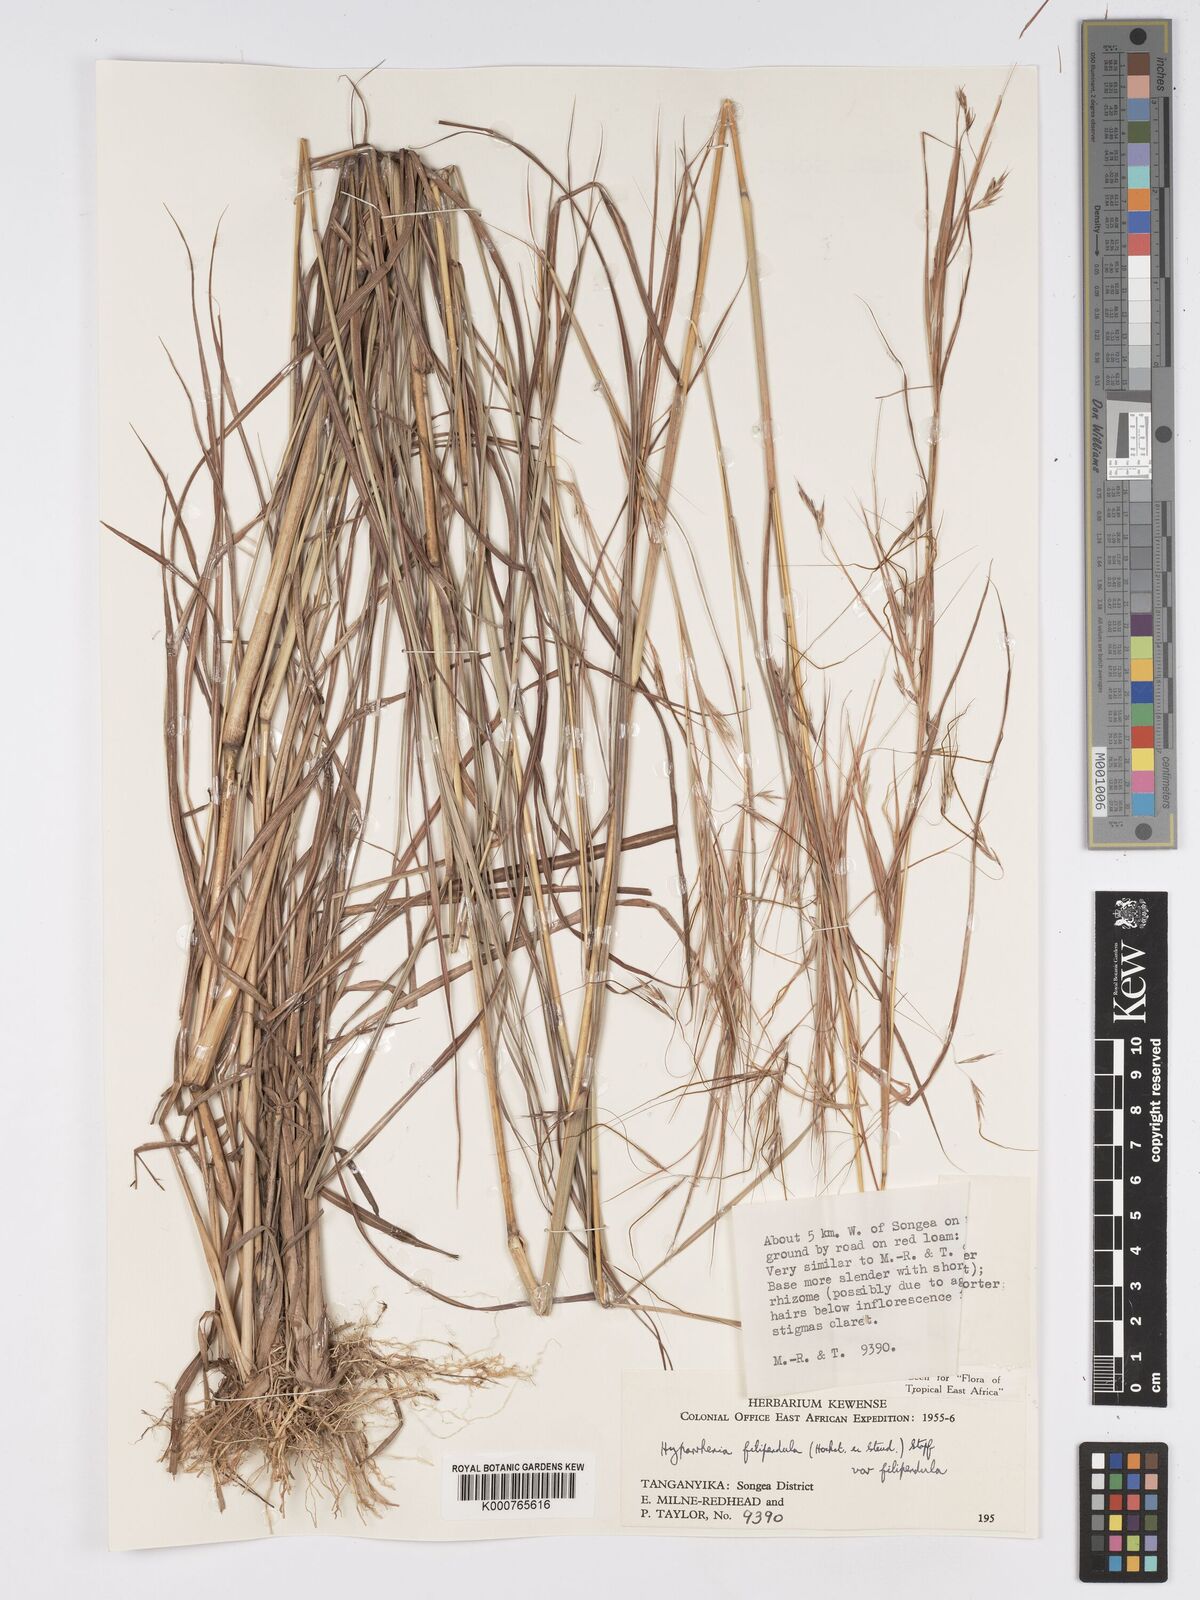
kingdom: Plantae
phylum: Tracheophyta
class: Liliopsida
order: Poales
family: Poaceae
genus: Hyparrhenia
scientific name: Hyparrhenia filipendula
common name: Tambookie grass
